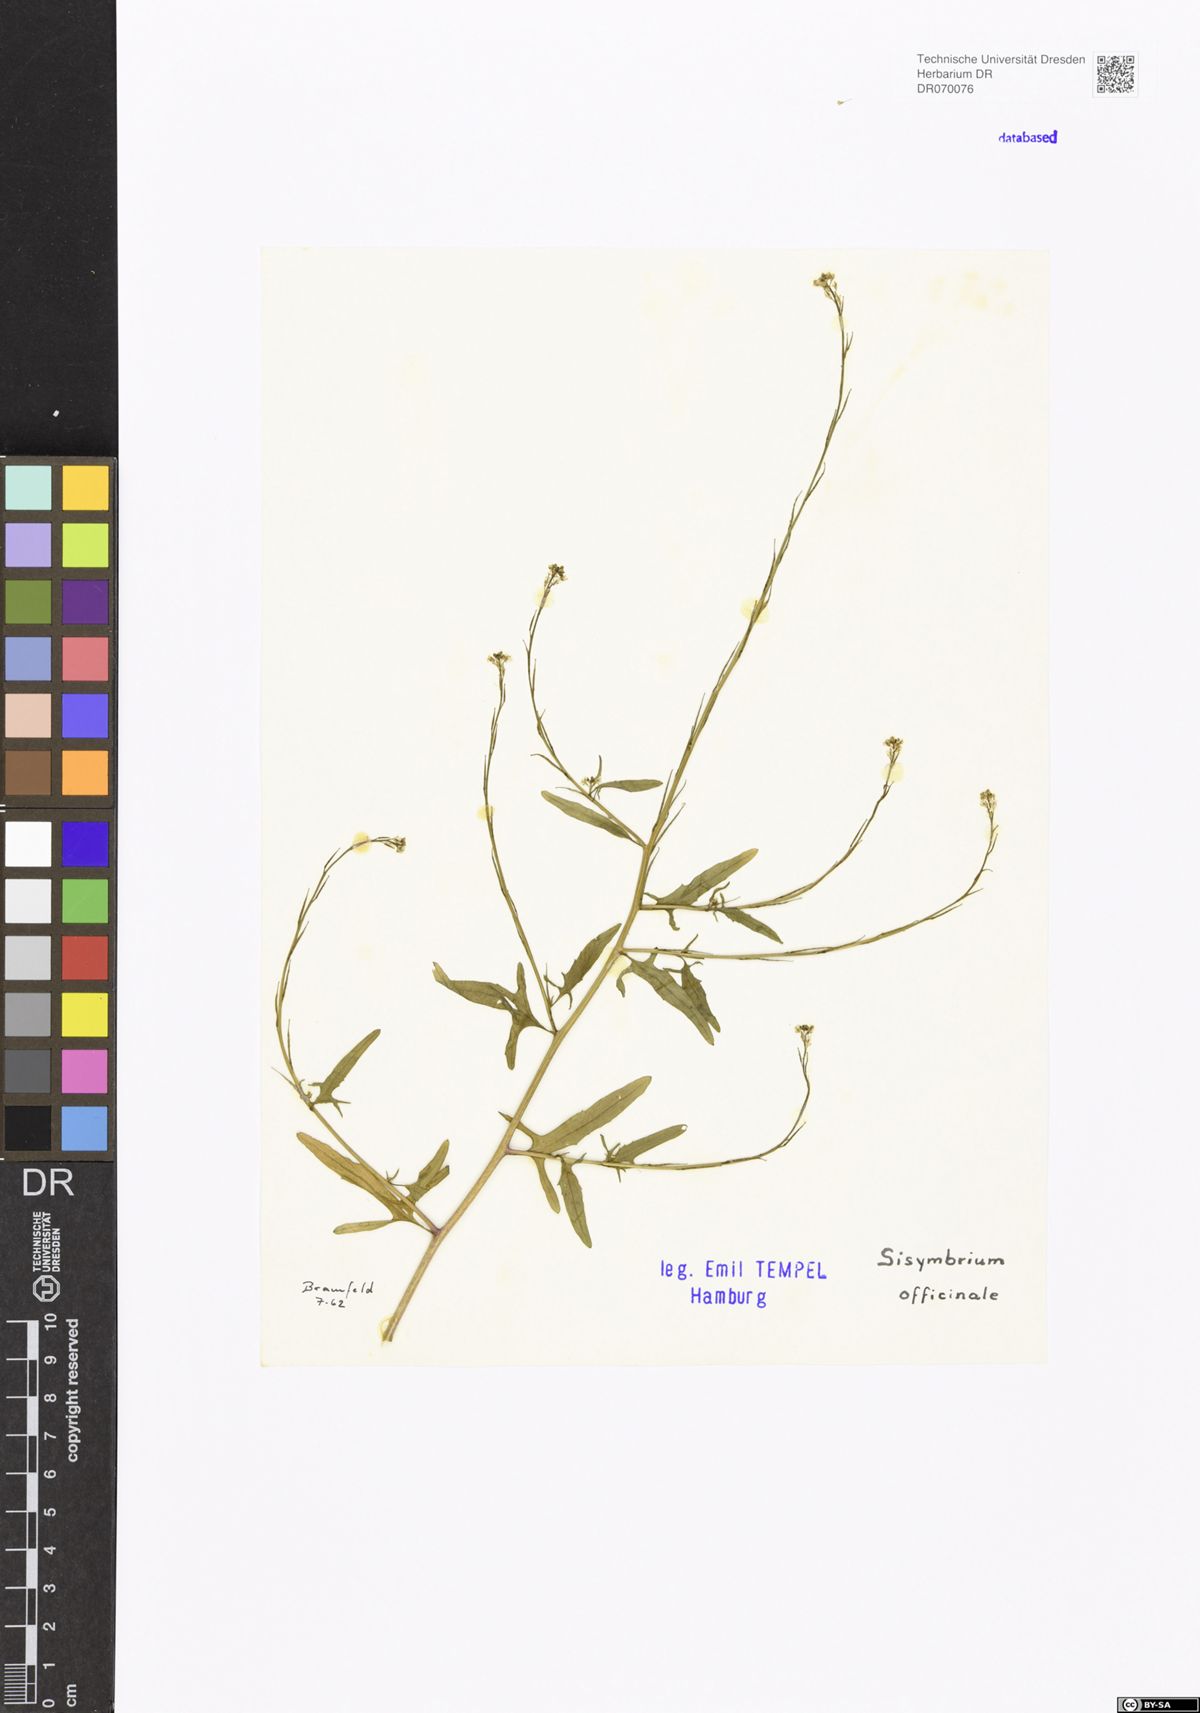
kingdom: Plantae
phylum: Tracheophyta
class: Magnoliopsida
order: Brassicales
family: Brassicaceae
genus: Sisymbrium
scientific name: Sisymbrium officinale
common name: Hedge mustard
